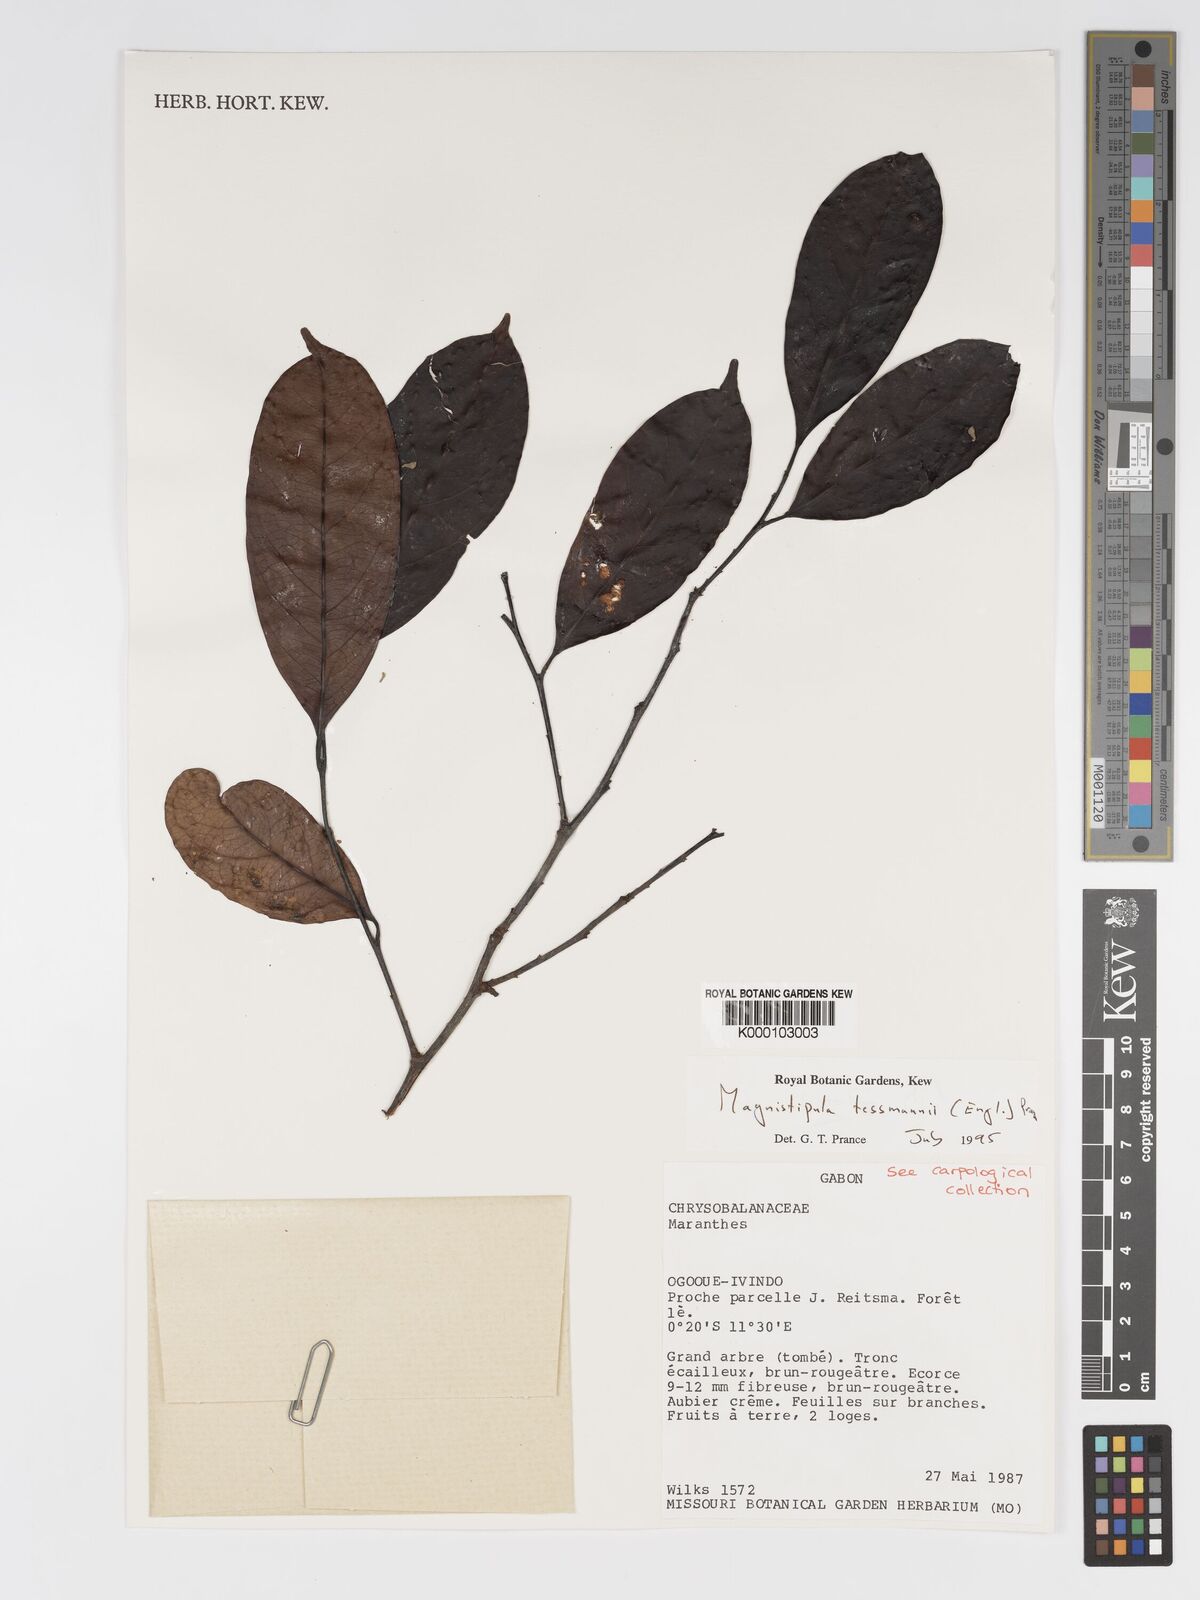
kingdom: Plantae
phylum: Tracheophyta
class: Magnoliopsida
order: Malpighiales
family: Chrysobalanaceae
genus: Magnistipula
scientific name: Magnistipula tessmannii
